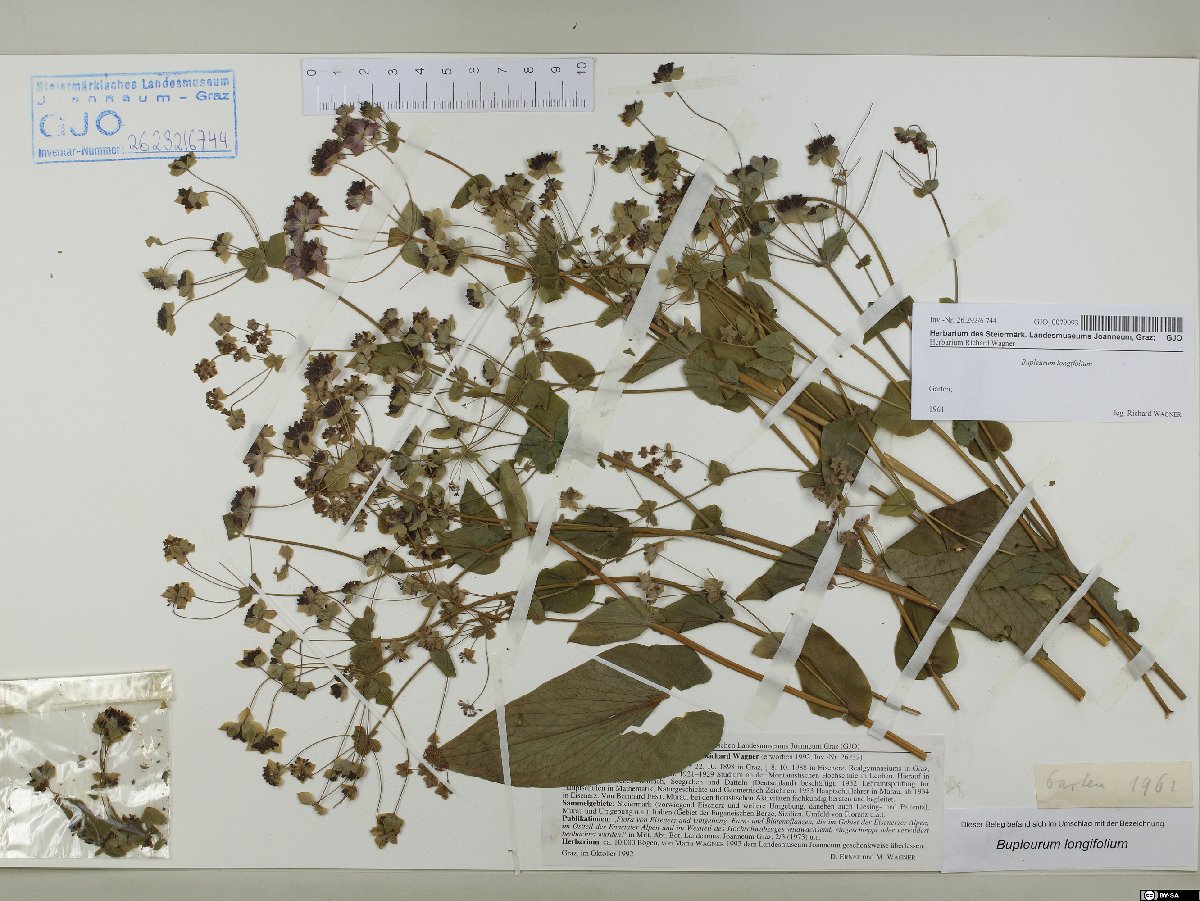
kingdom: Plantae
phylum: Tracheophyta
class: Magnoliopsida
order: Apiales
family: Apiaceae
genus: Bupleurum
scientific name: Bupleurum longifolium
